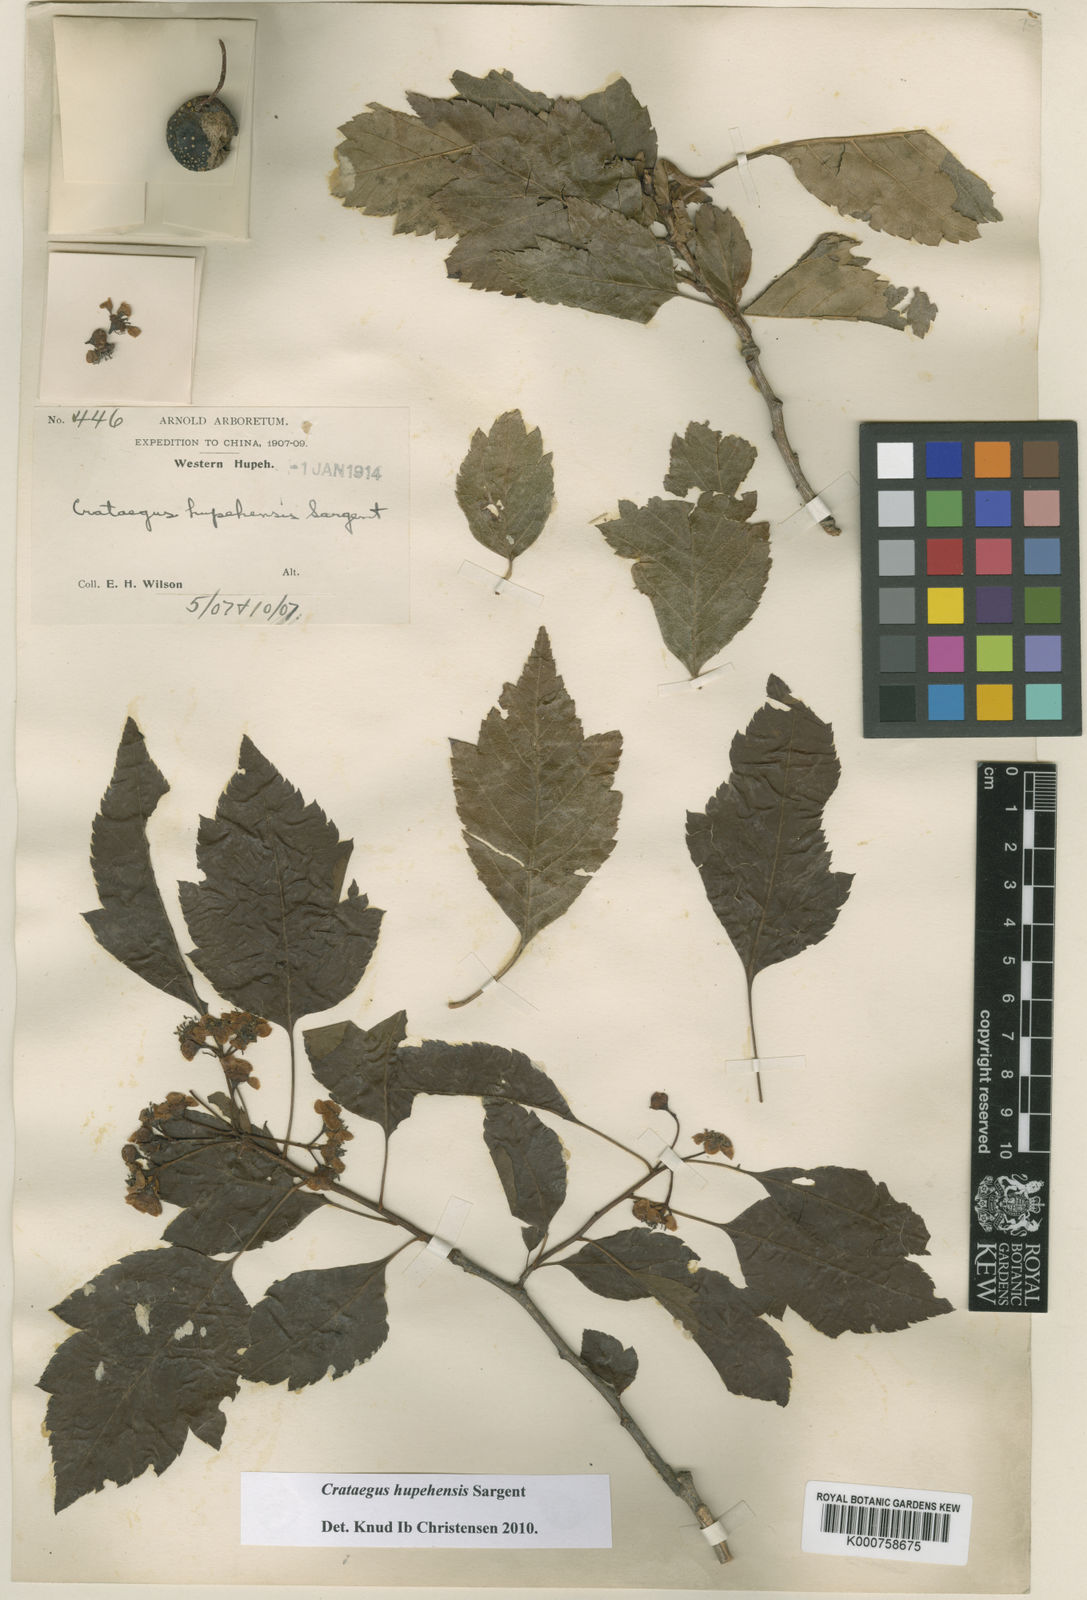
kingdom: Plantae
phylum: Tracheophyta
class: Magnoliopsida
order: Rosales
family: Rosaceae
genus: Crataegus
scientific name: Crataegus hupehensis
